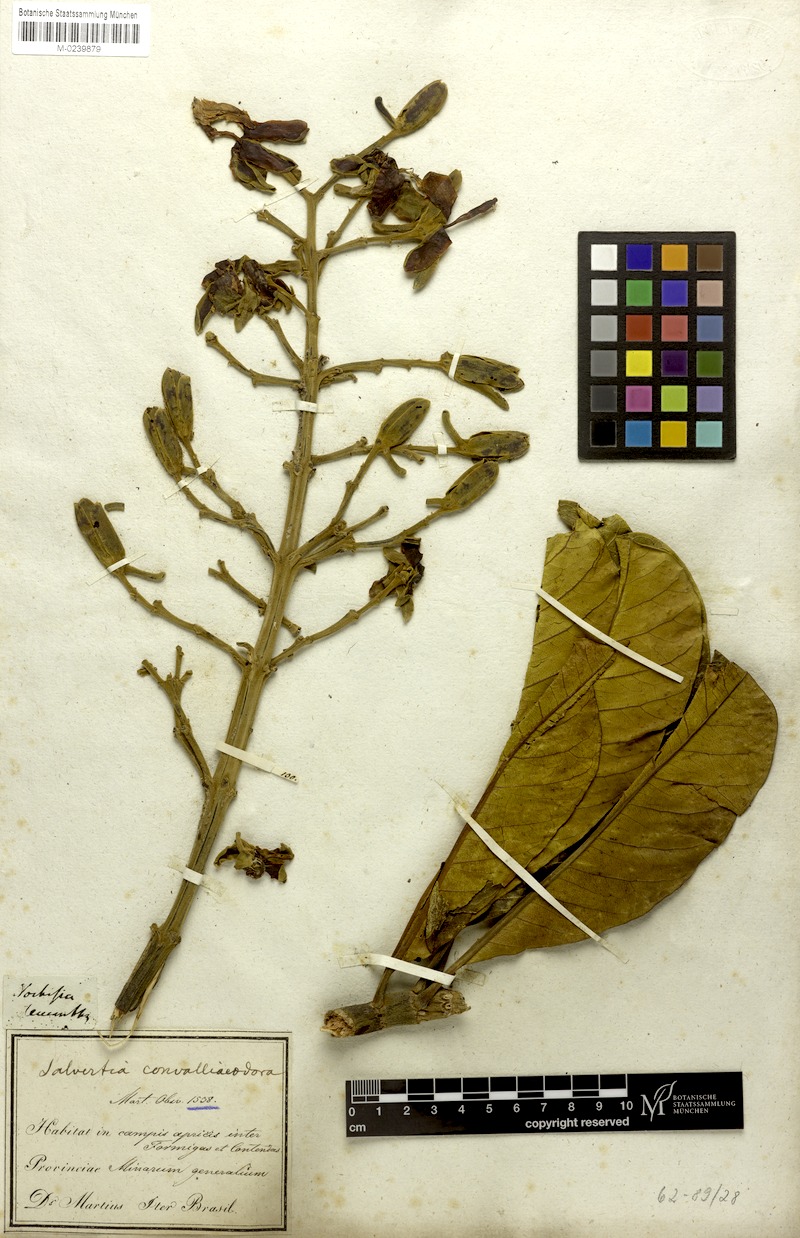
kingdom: Plantae
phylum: Tracheophyta
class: Magnoliopsida
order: Myrtales
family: Vochysiaceae
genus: Salvertia
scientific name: Salvertia convallariodora
